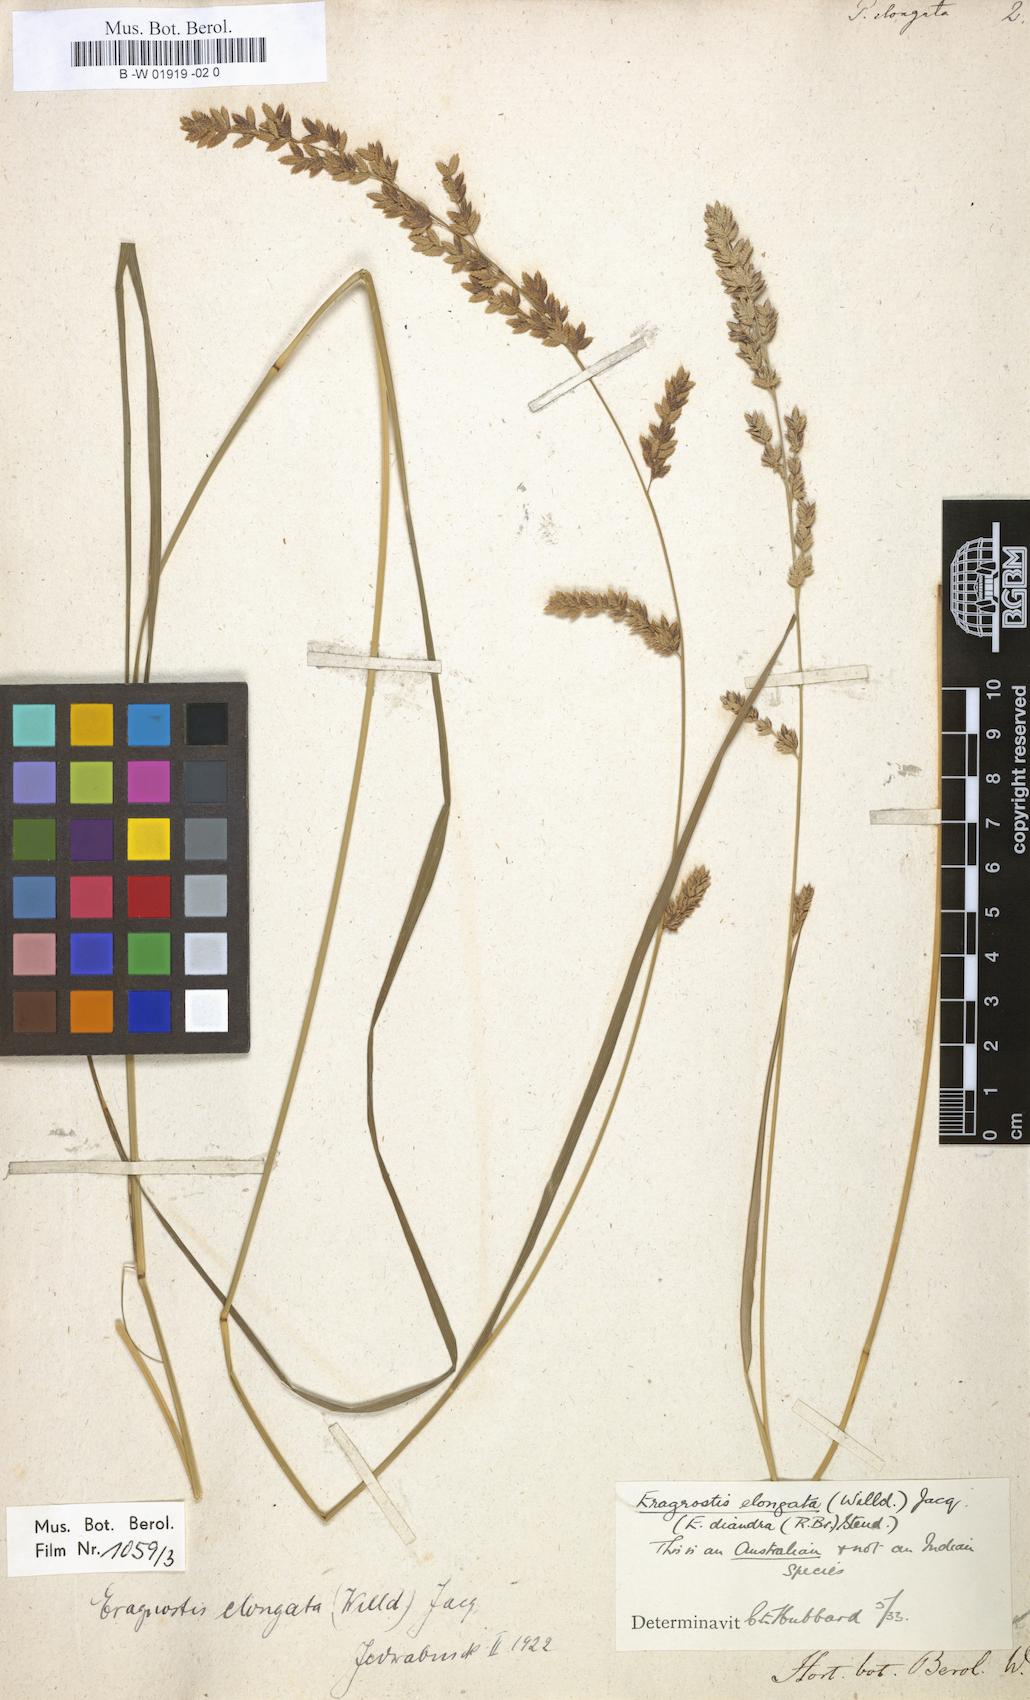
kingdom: Plantae
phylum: Tracheophyta
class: Liliopsida
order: Poales
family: Poaceae
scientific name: Poaceae
